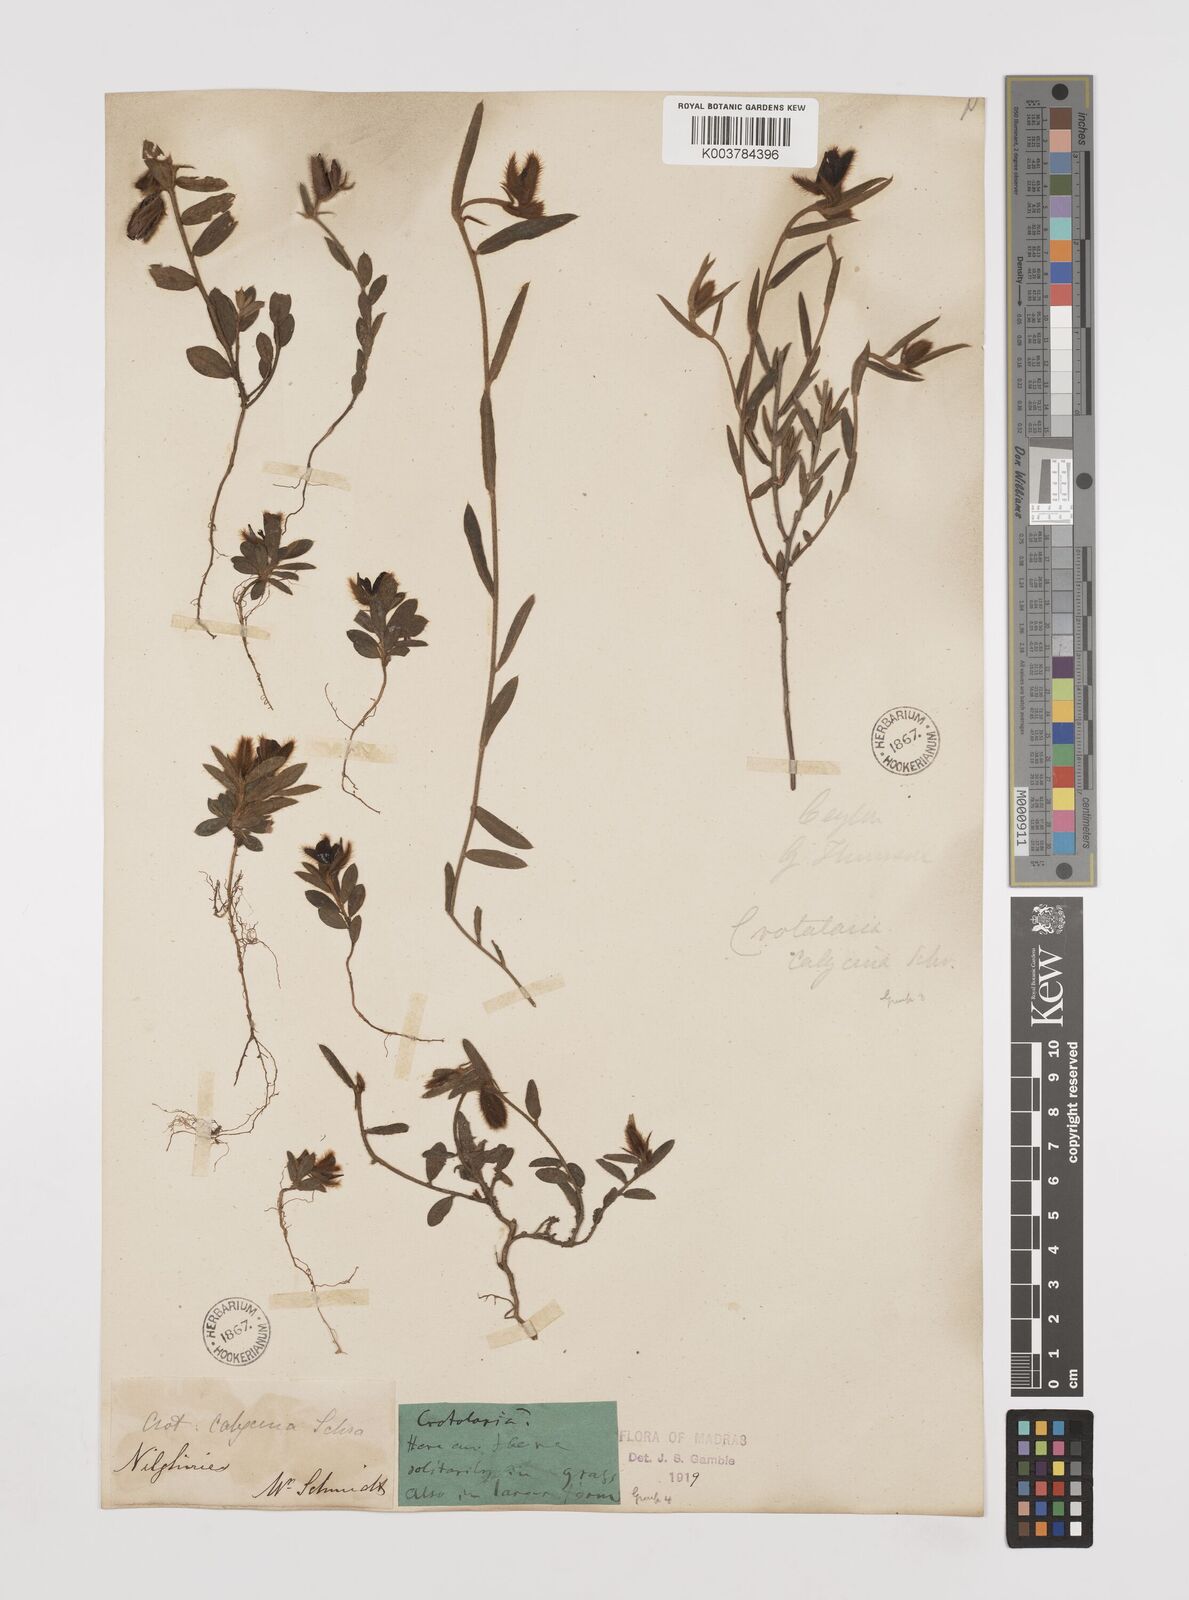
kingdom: Plantae
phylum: Tracheophyta
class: Magnoliopsida
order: Fabales
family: Fabaceae
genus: Crotalaria
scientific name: Crotalaria calycina
